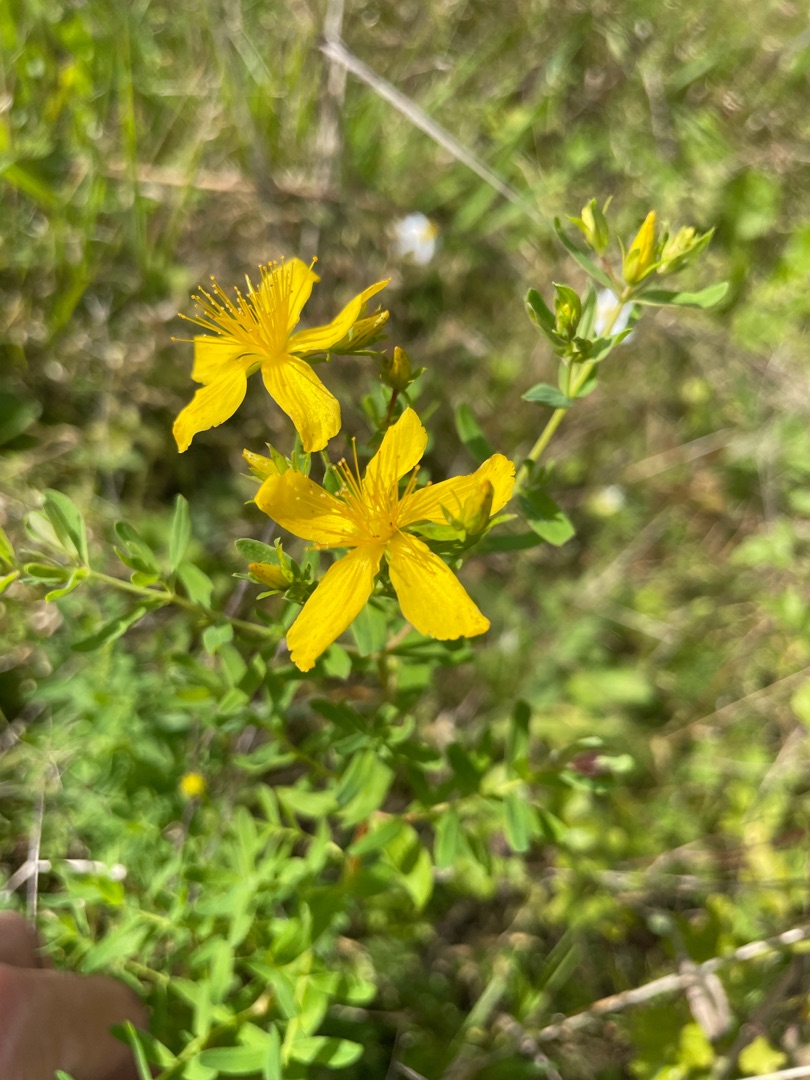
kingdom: Plantae
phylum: Tracheophyta
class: Magnoliopsida
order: Malpighiales
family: Hypericaceae
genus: Hypericum
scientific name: Hypericum perforatum
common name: Prikbladet perikon
